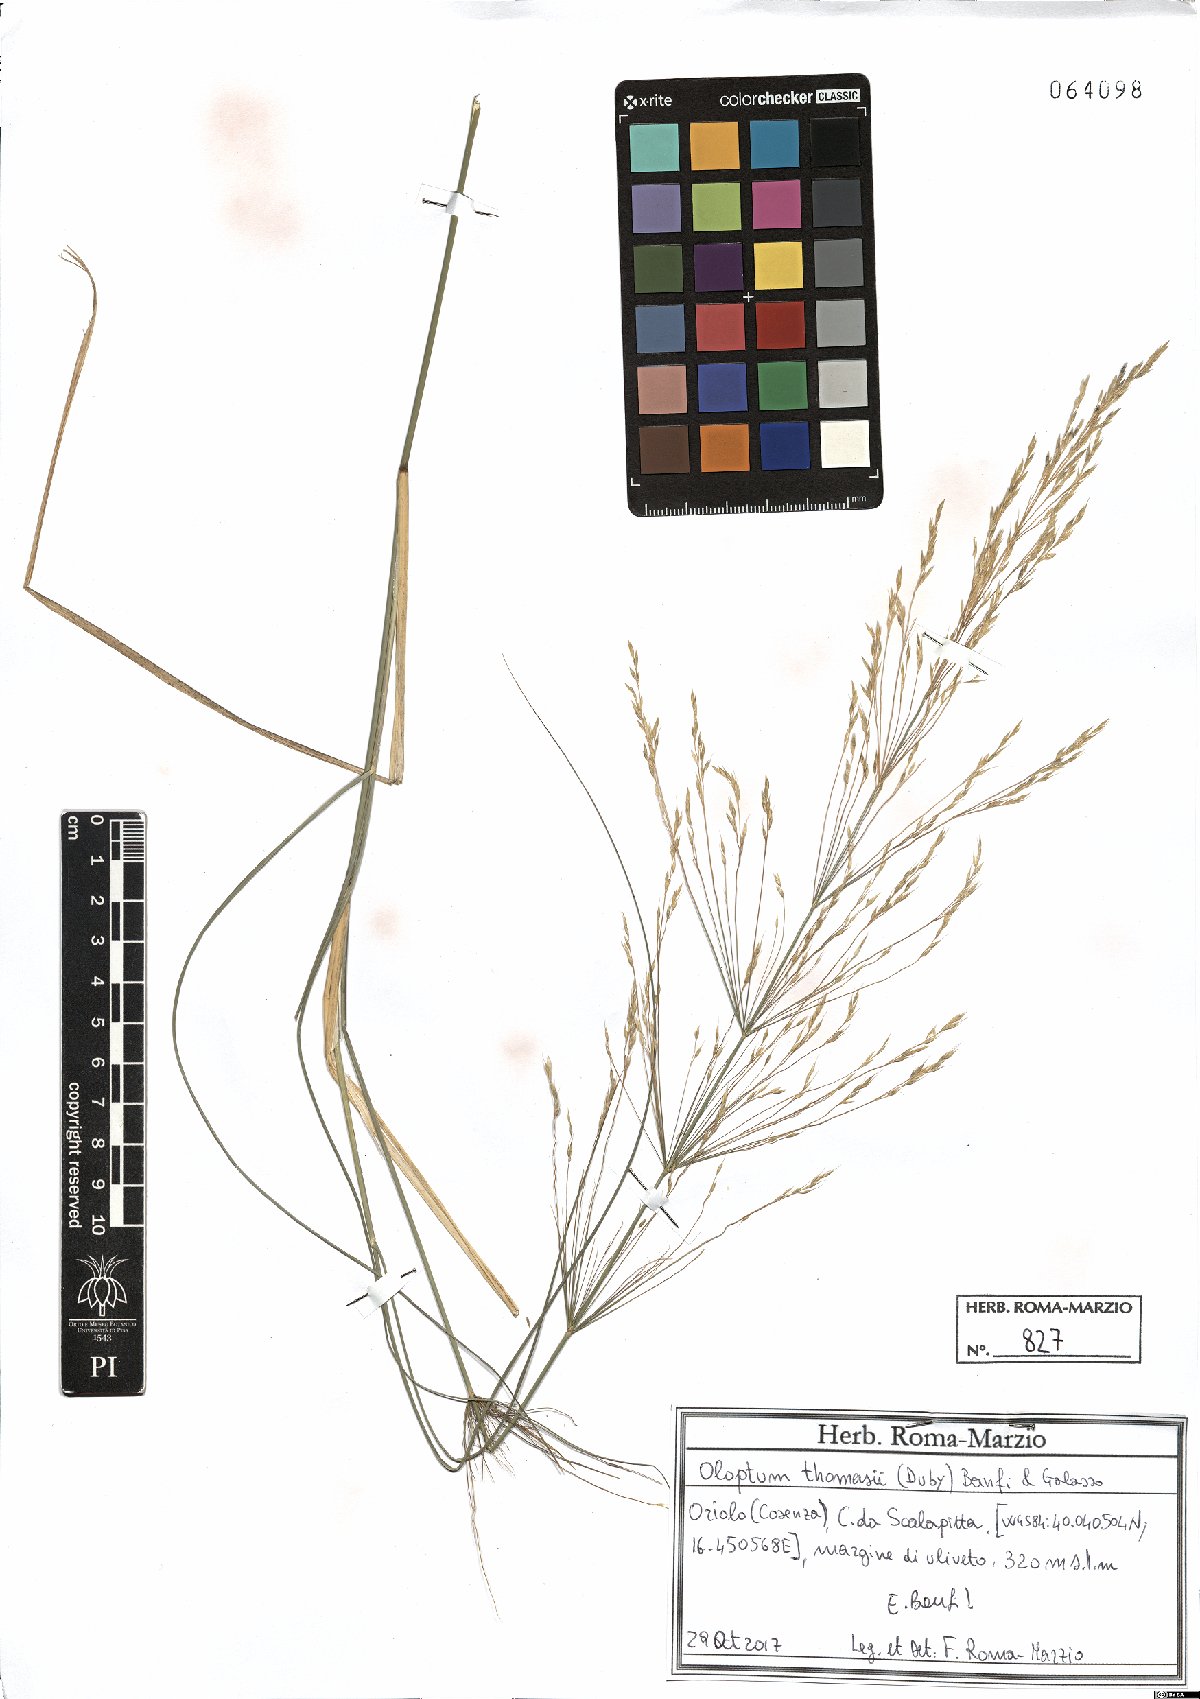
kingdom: Plantae
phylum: Tracheophyta
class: Liliopsida
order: Poales
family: Poaceae
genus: Oloptum
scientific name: Oloptum thomasii
